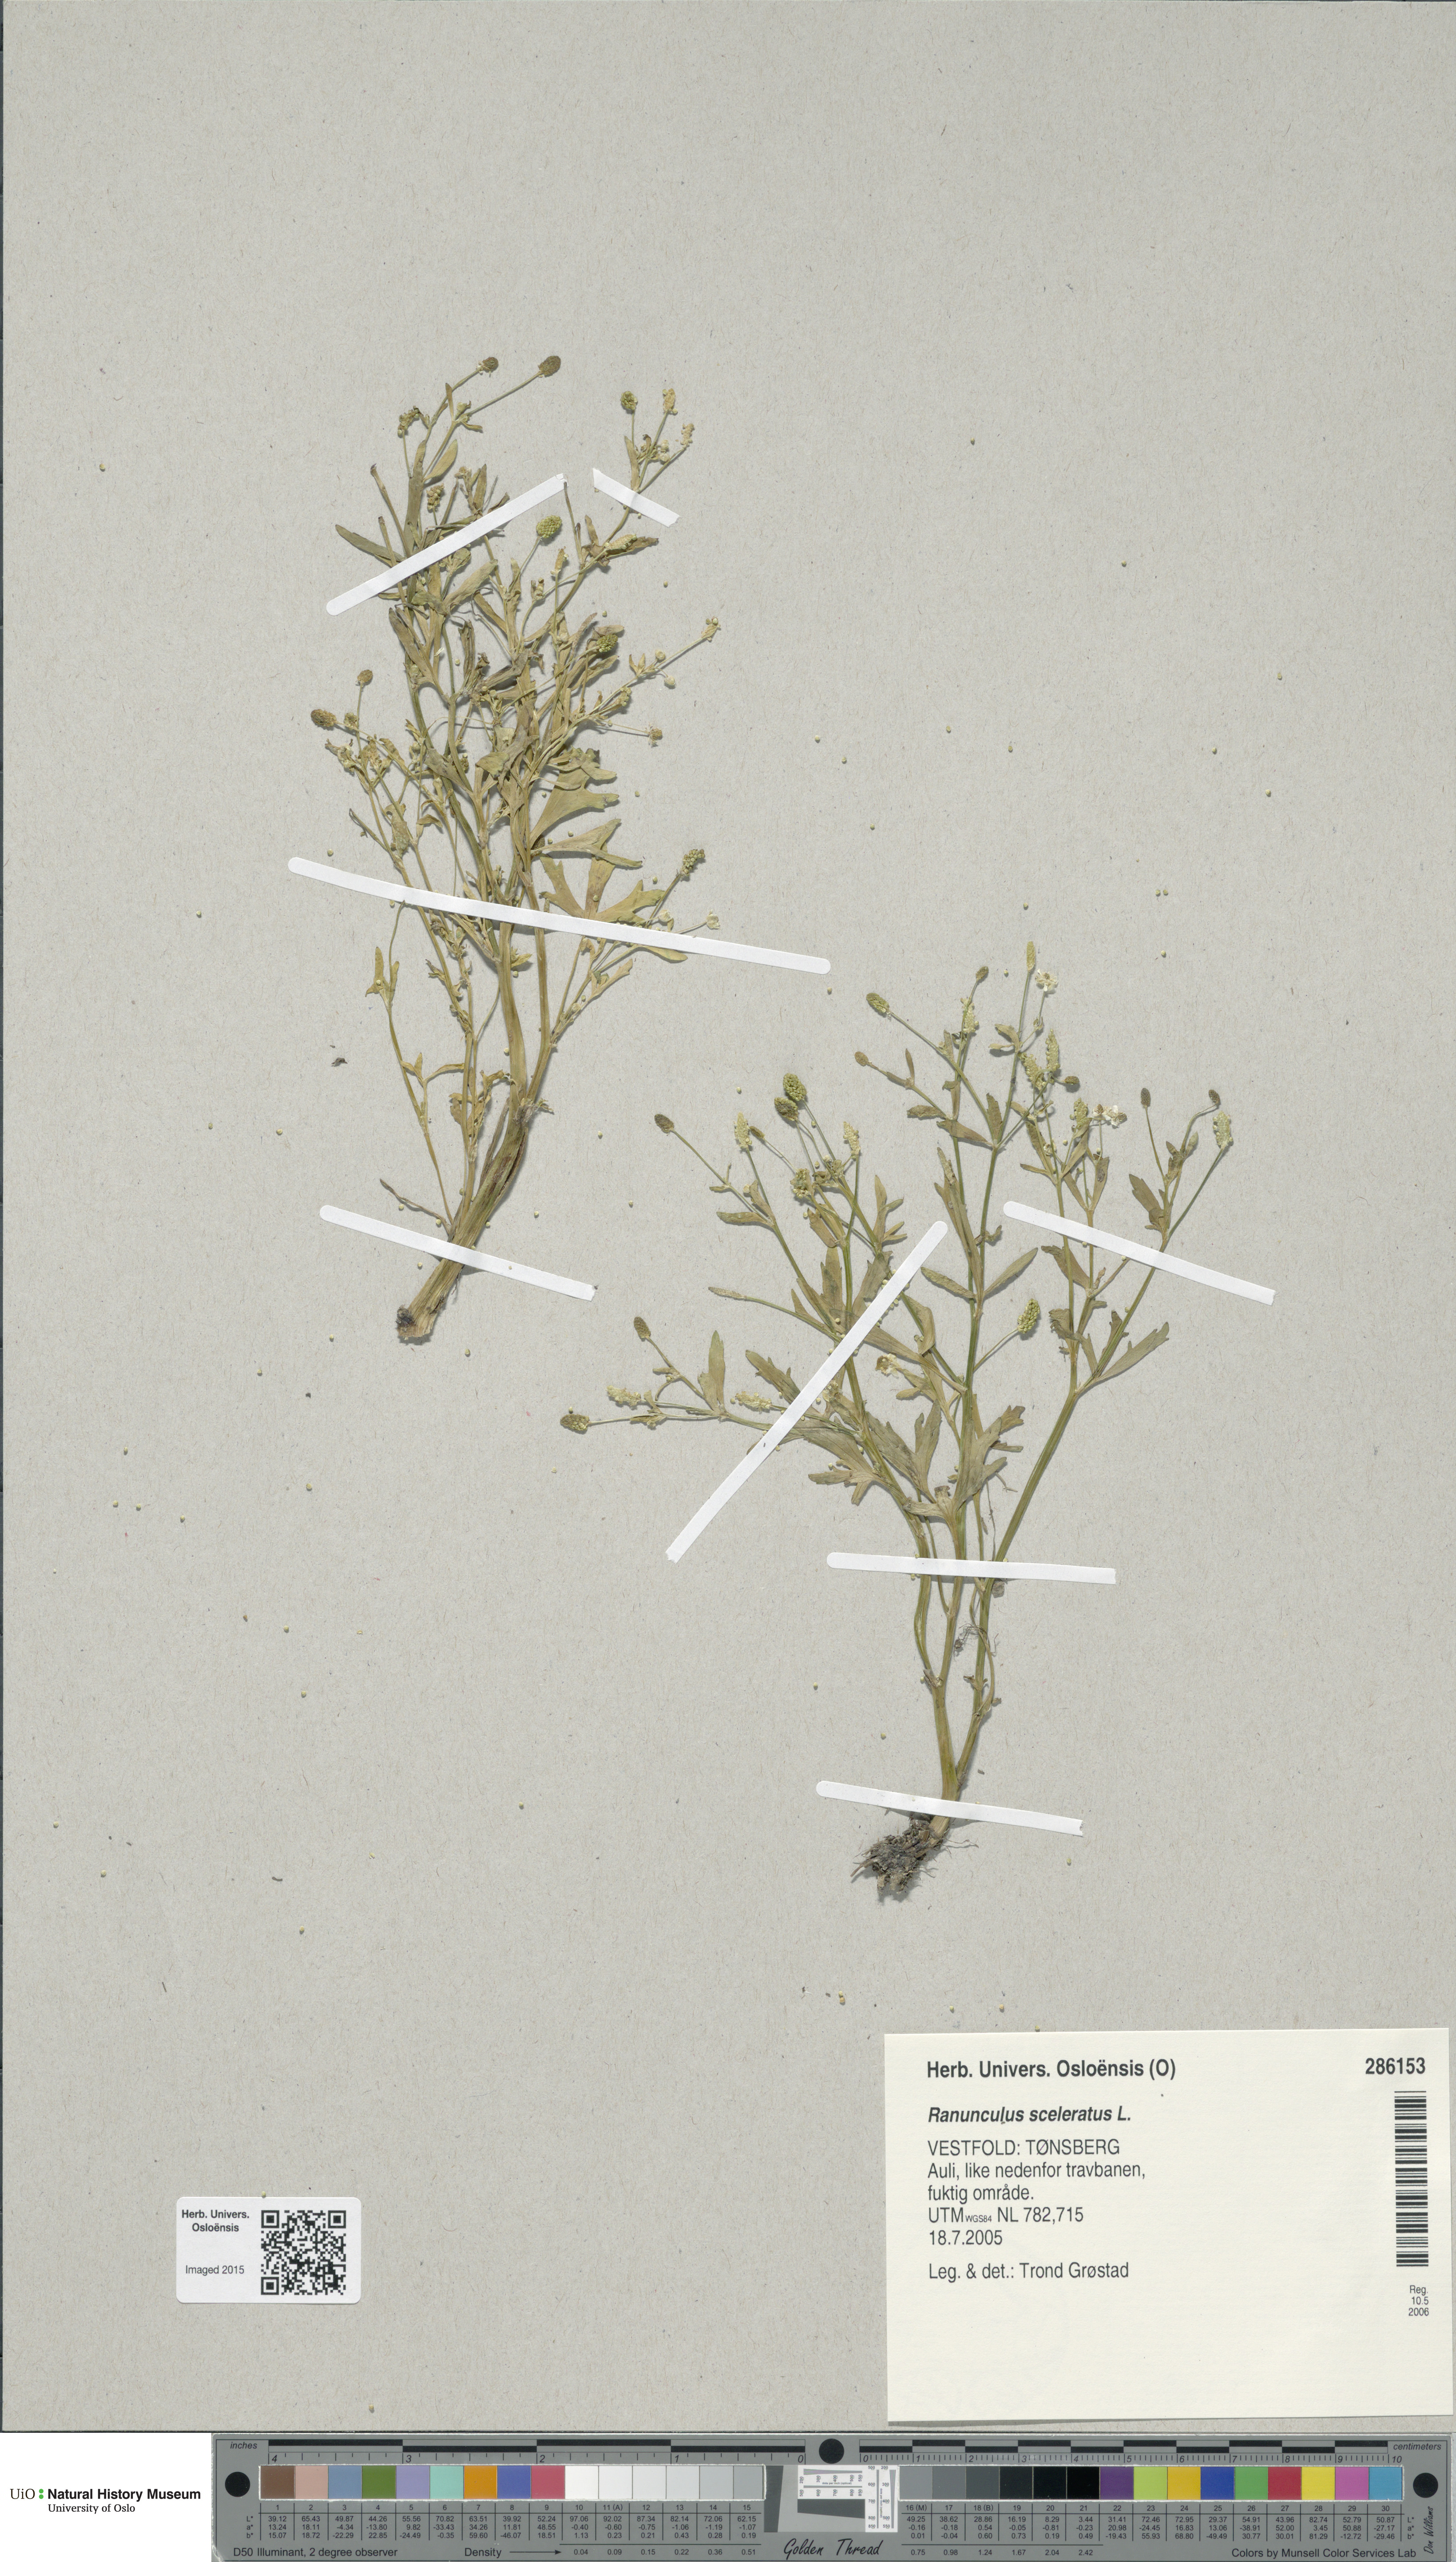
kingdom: Plantae
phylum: Tracheophyta
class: Magnoliopsida
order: Ranunculales
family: Ranunculaceae
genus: Ranunculus
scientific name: Ranunculus sceleratus
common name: Celery-leaved buttercup
